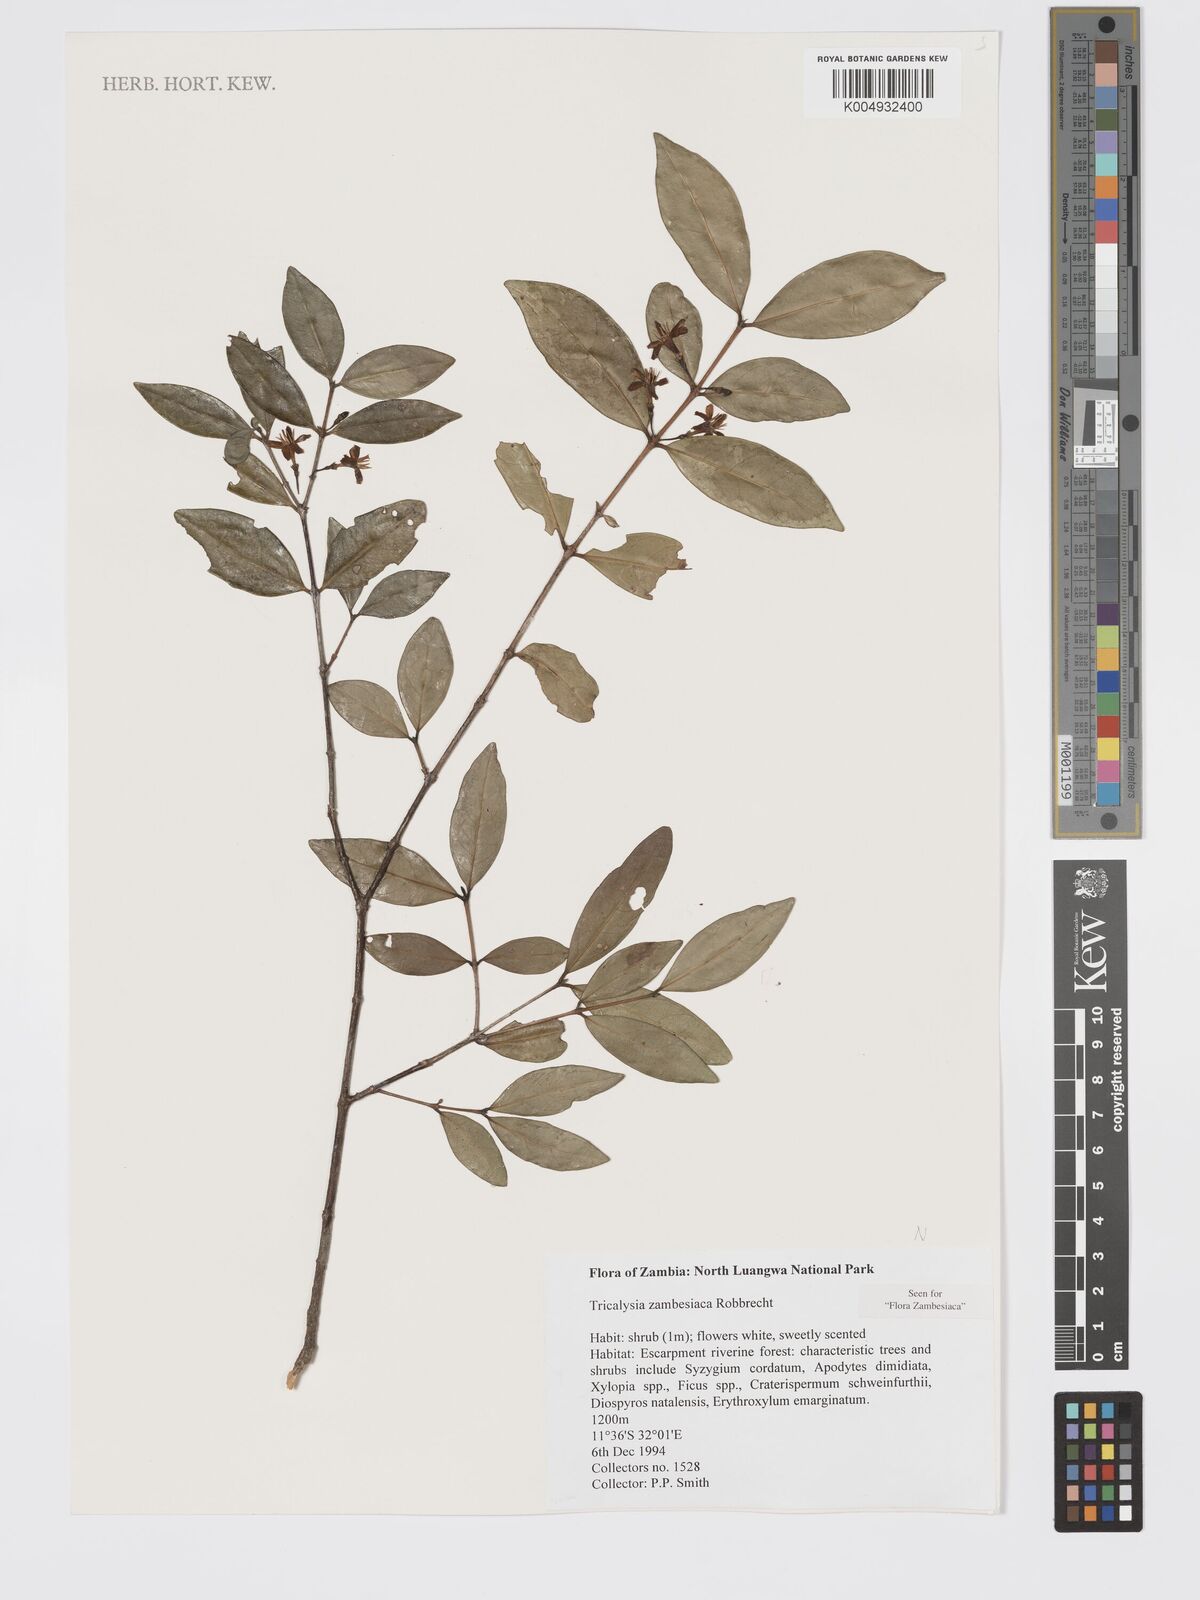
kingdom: Plantae
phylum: Tracheophyta
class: Magnoliopsida
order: Gentianales
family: Rubiaceae
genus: Tricalysia
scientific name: Tricalysia zambesiaca
